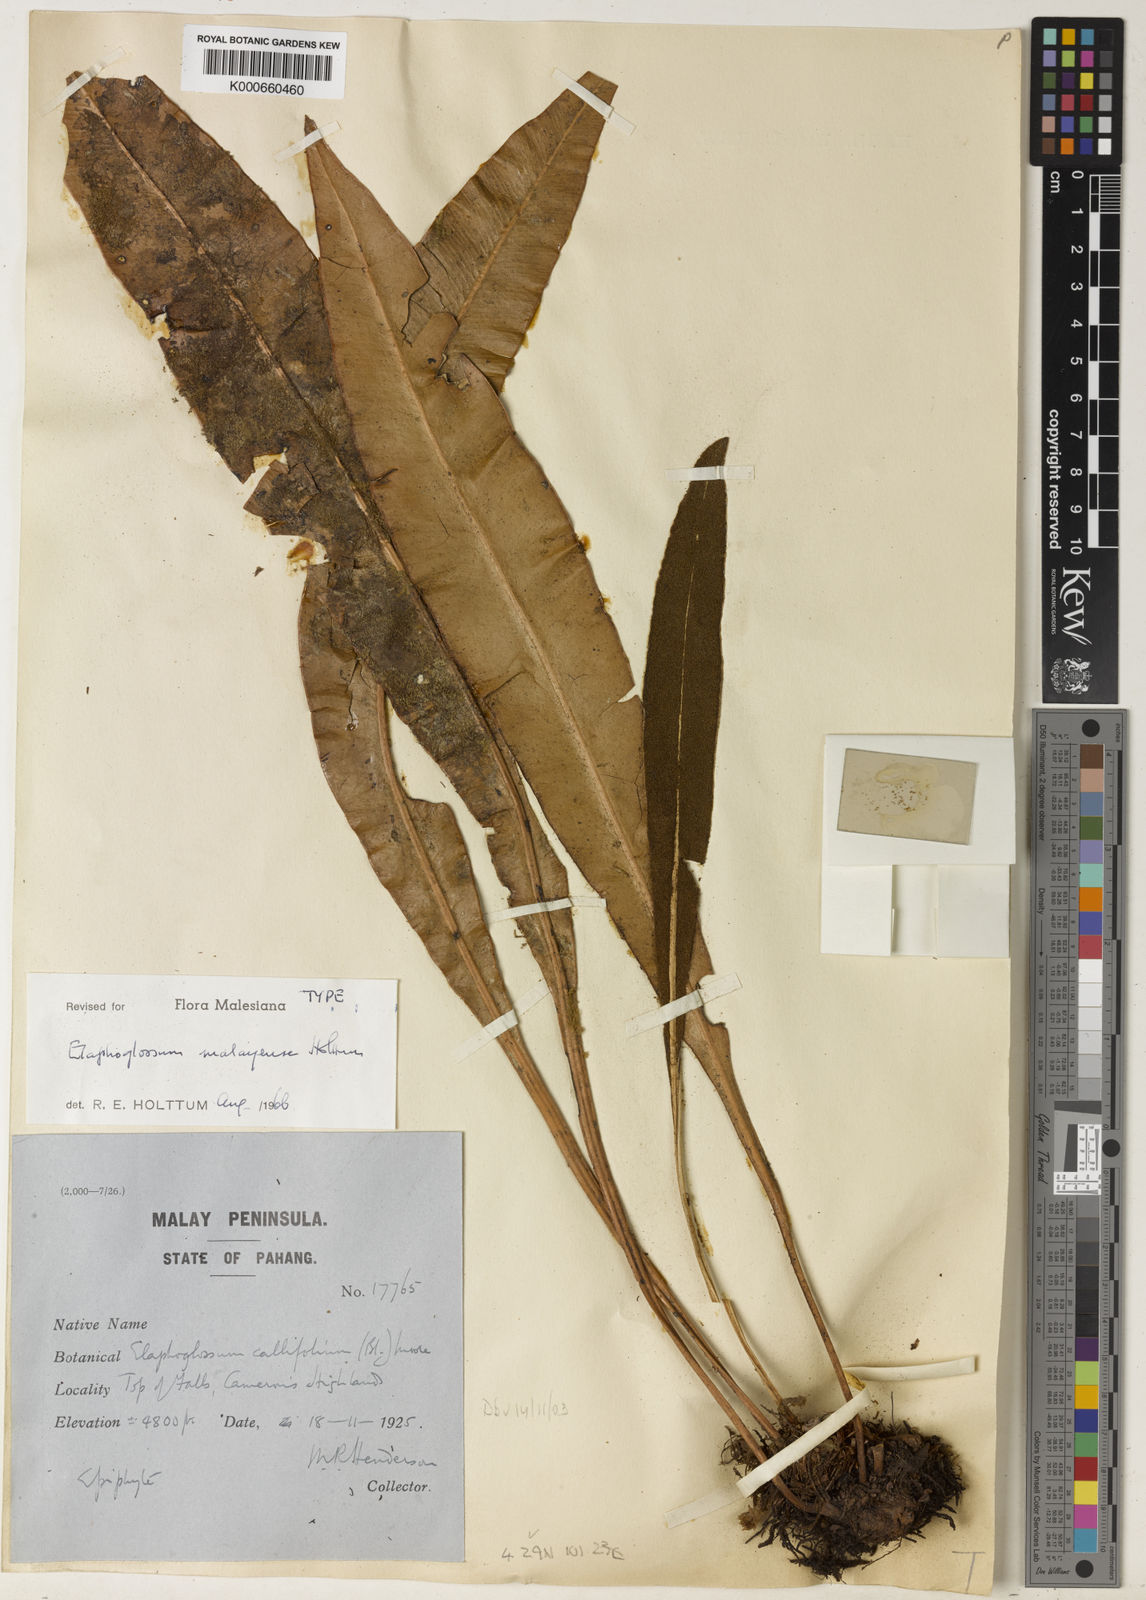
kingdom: Plantae
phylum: Tracheophyta
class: Polypodiopsida
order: Polypodiales
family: Dryopteridaceae
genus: Elaphoglossum
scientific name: Elaphoglossum malayense
